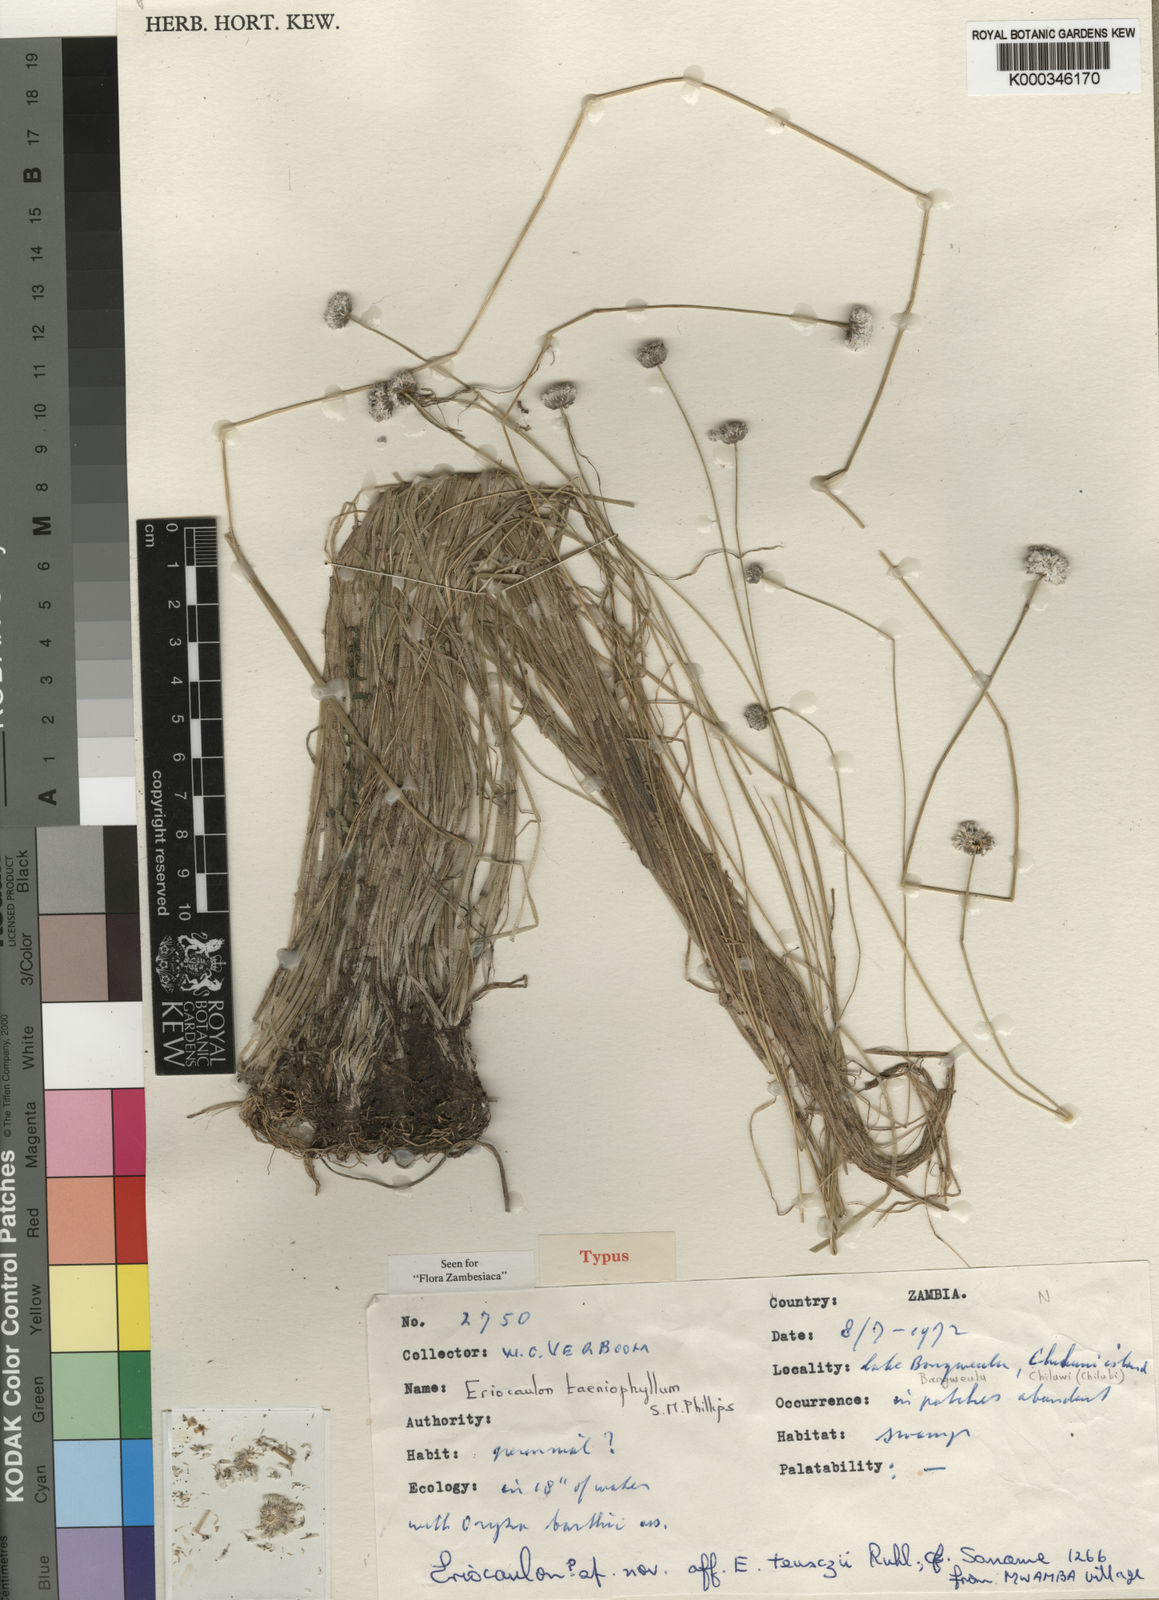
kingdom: Plantae
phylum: Tracheophyta
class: Liliopsida
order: Poales
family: Eriocaulaceae
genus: Eriocaulon
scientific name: Eriocaulon taeniophyllum
